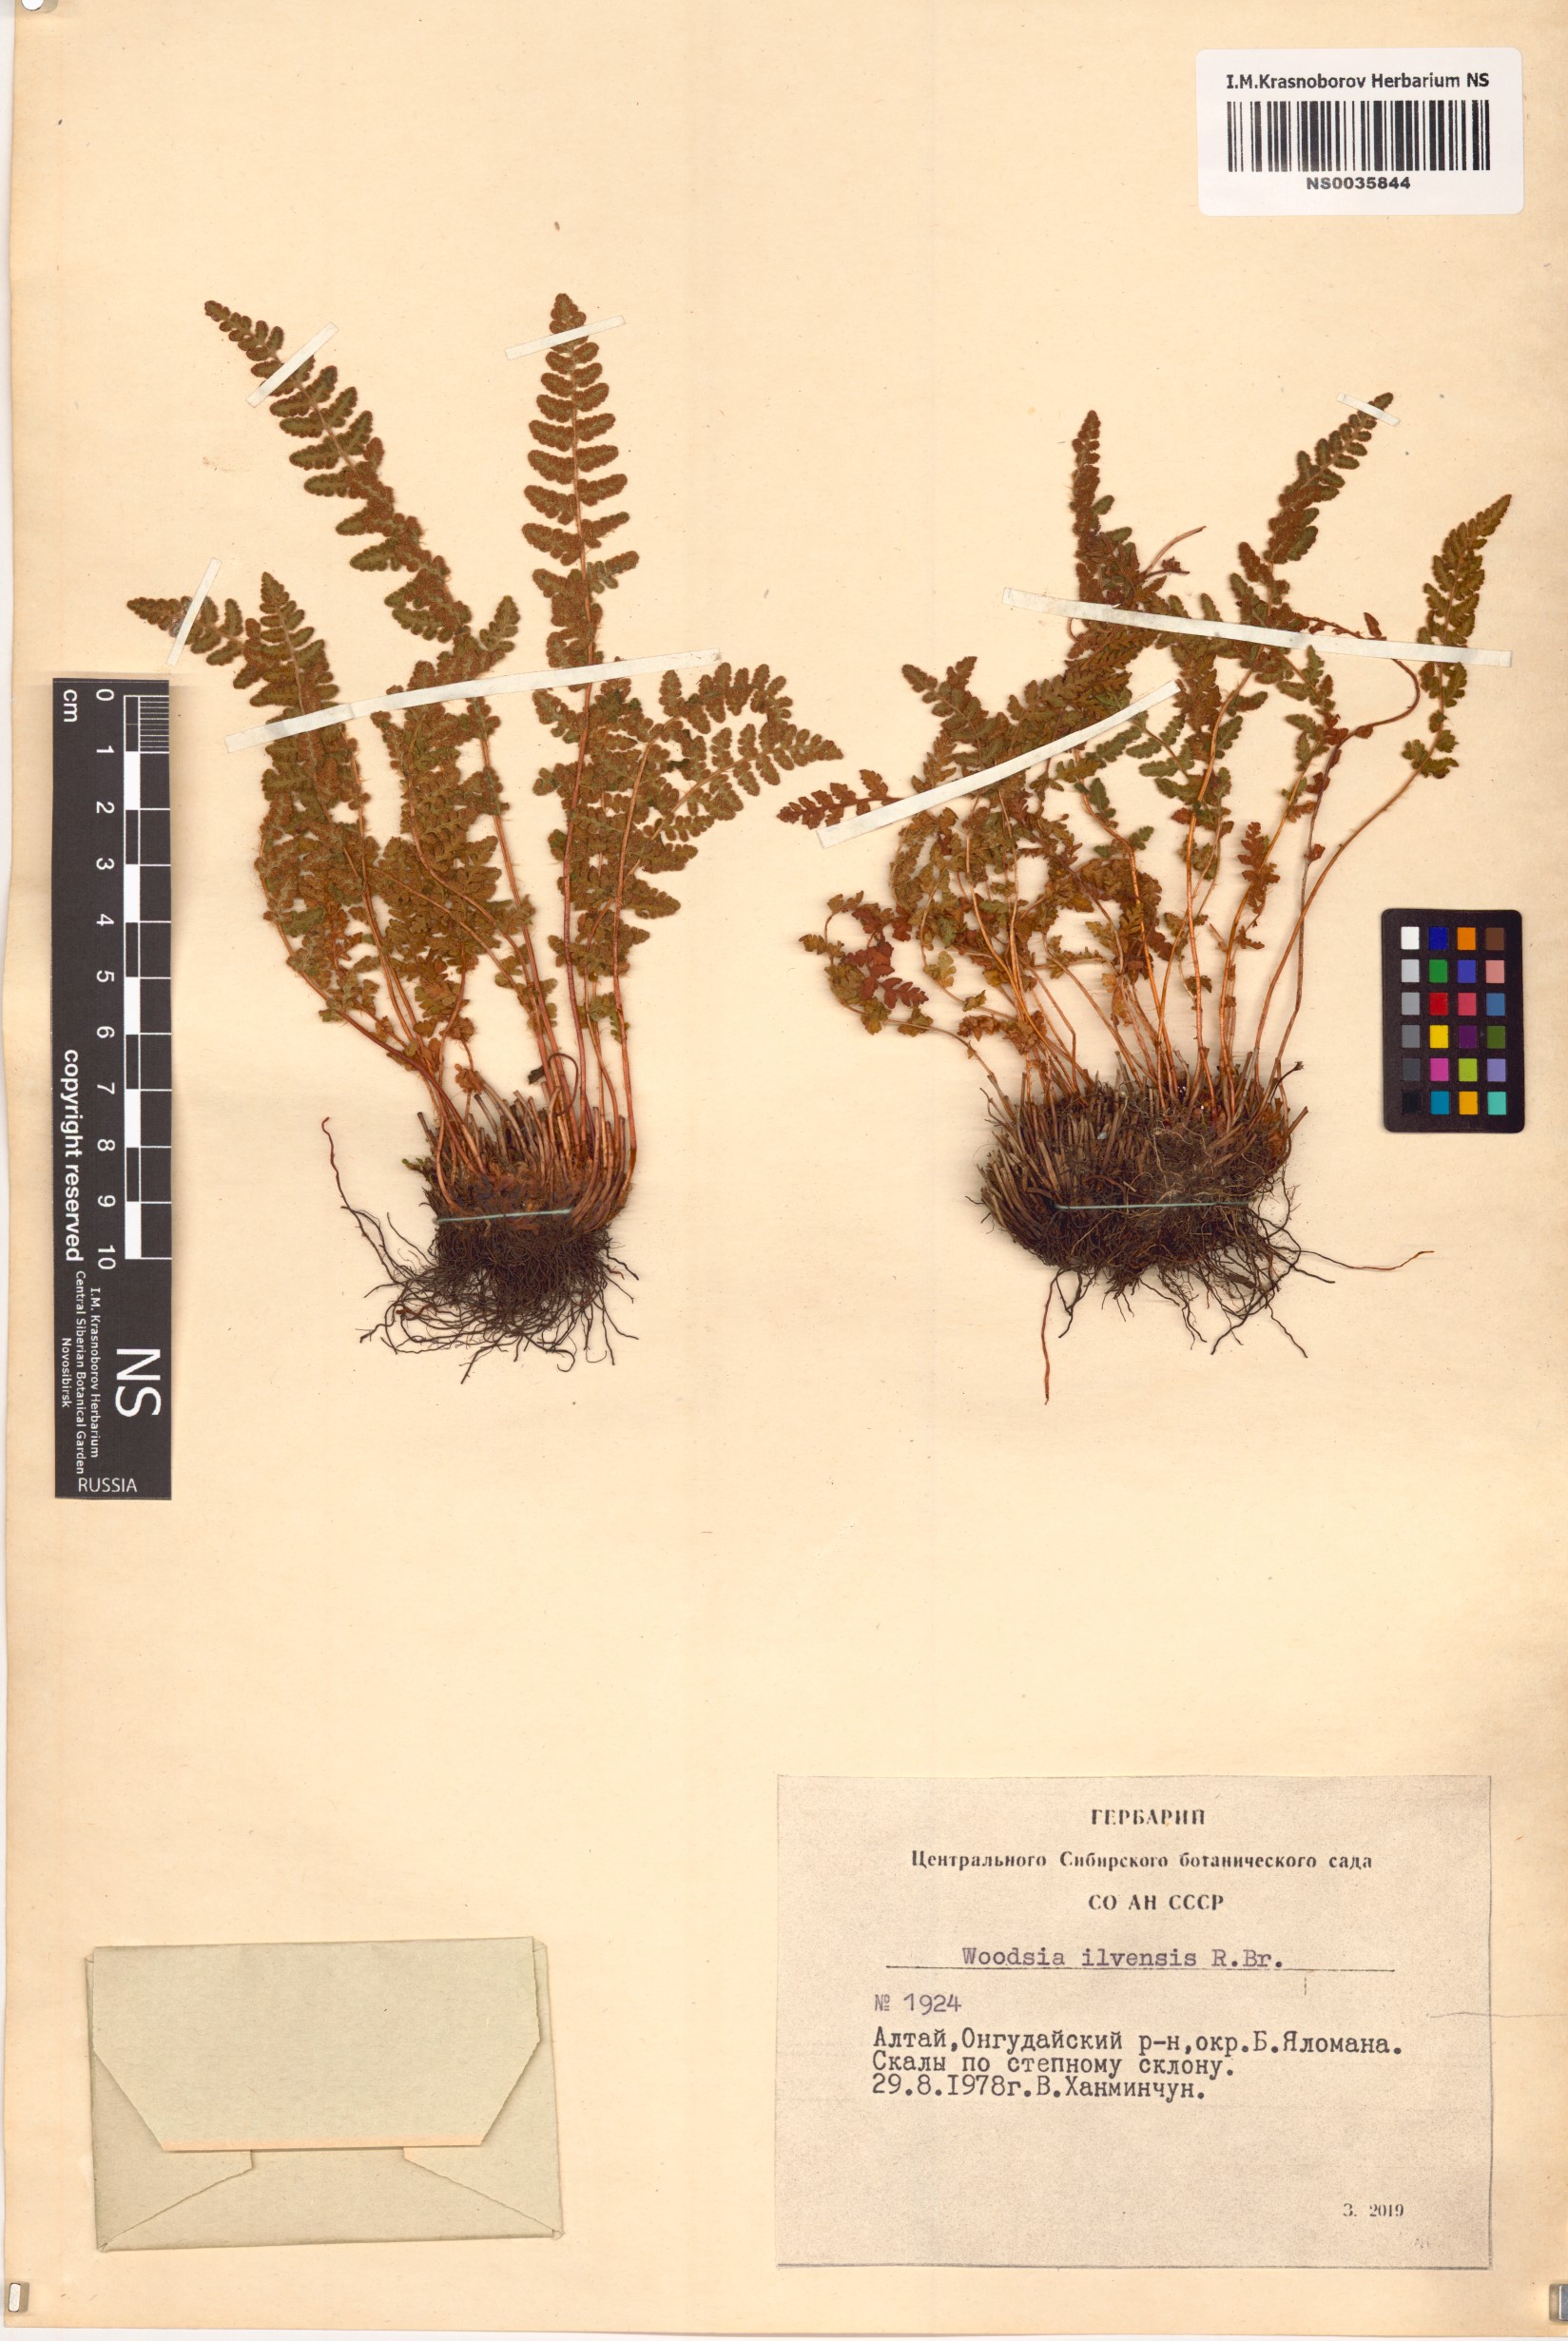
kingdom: Plantae
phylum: Tracheophyta
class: Polypodiopsida
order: Polypodiales
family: Woodsiaceae
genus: Woodsia
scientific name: Woodsia ilvensis
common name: Fragrant woodsia
